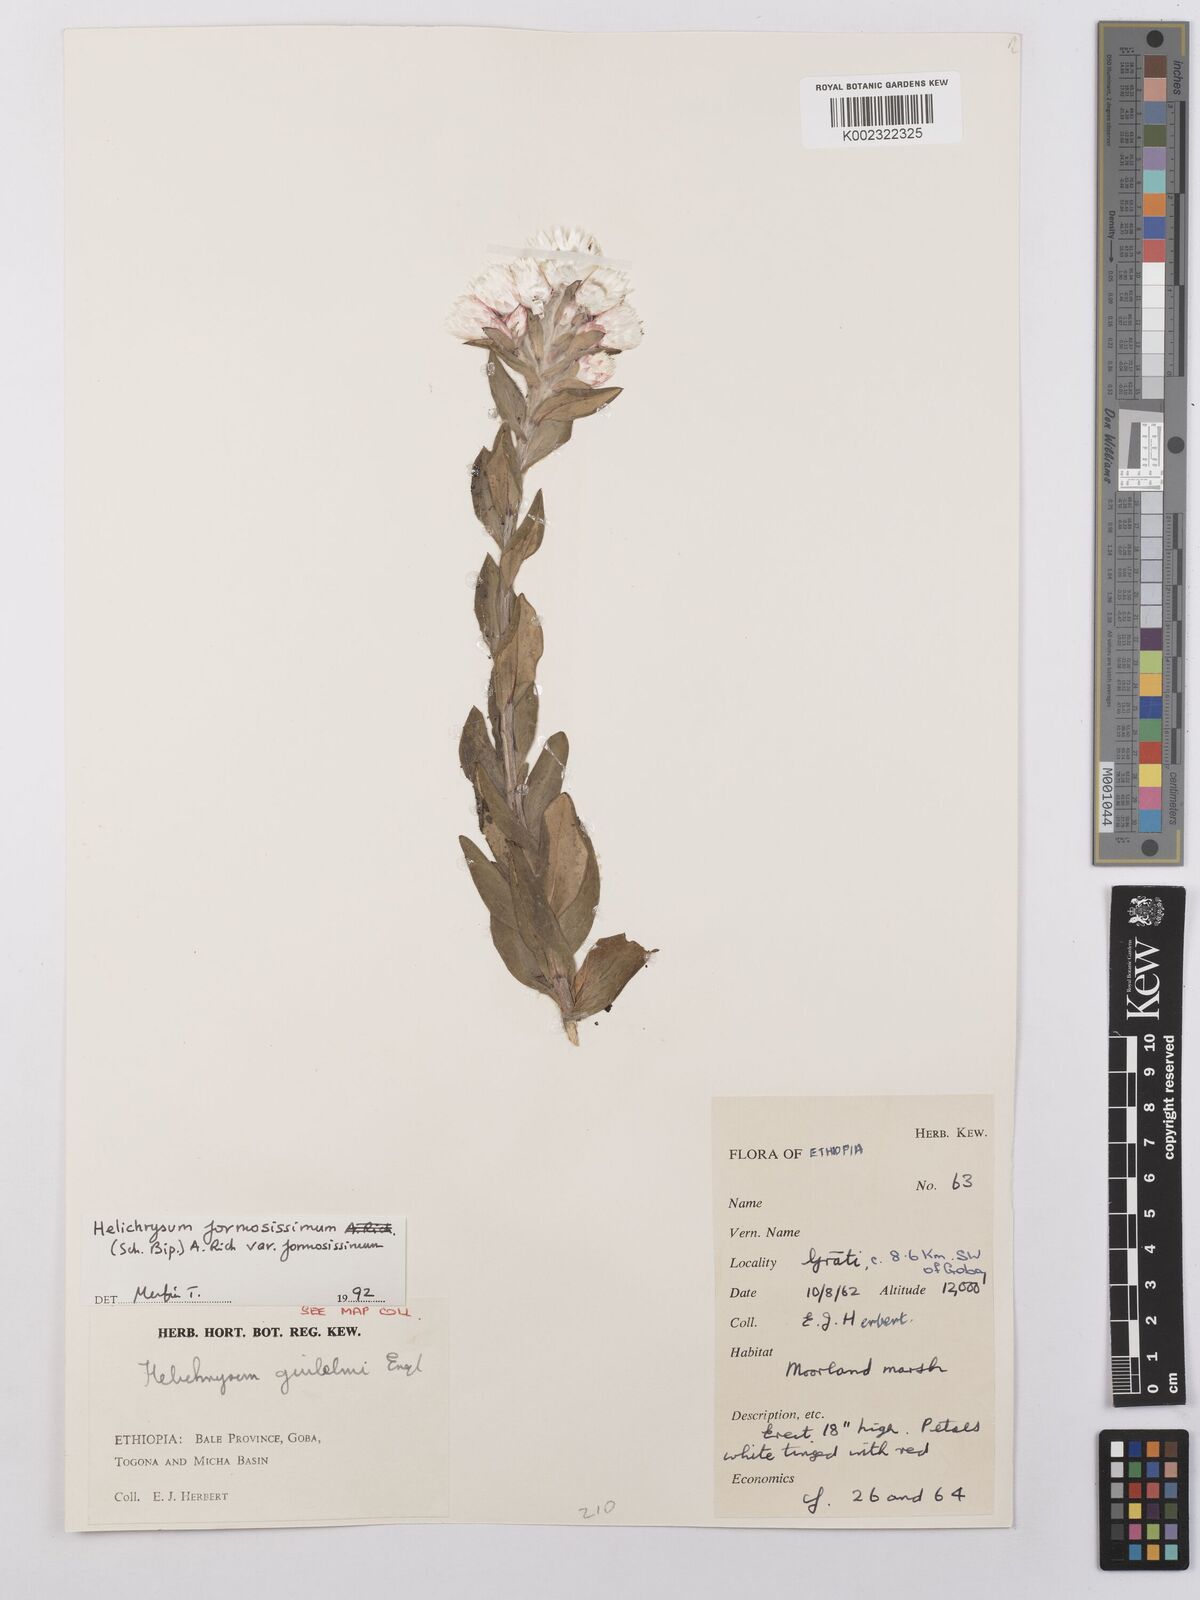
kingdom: Plantae
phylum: Tracheophyta
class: Magnoliopsida
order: Asterales
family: Asteraceae
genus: Helichrysum
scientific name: Helichrysum formosissimum
